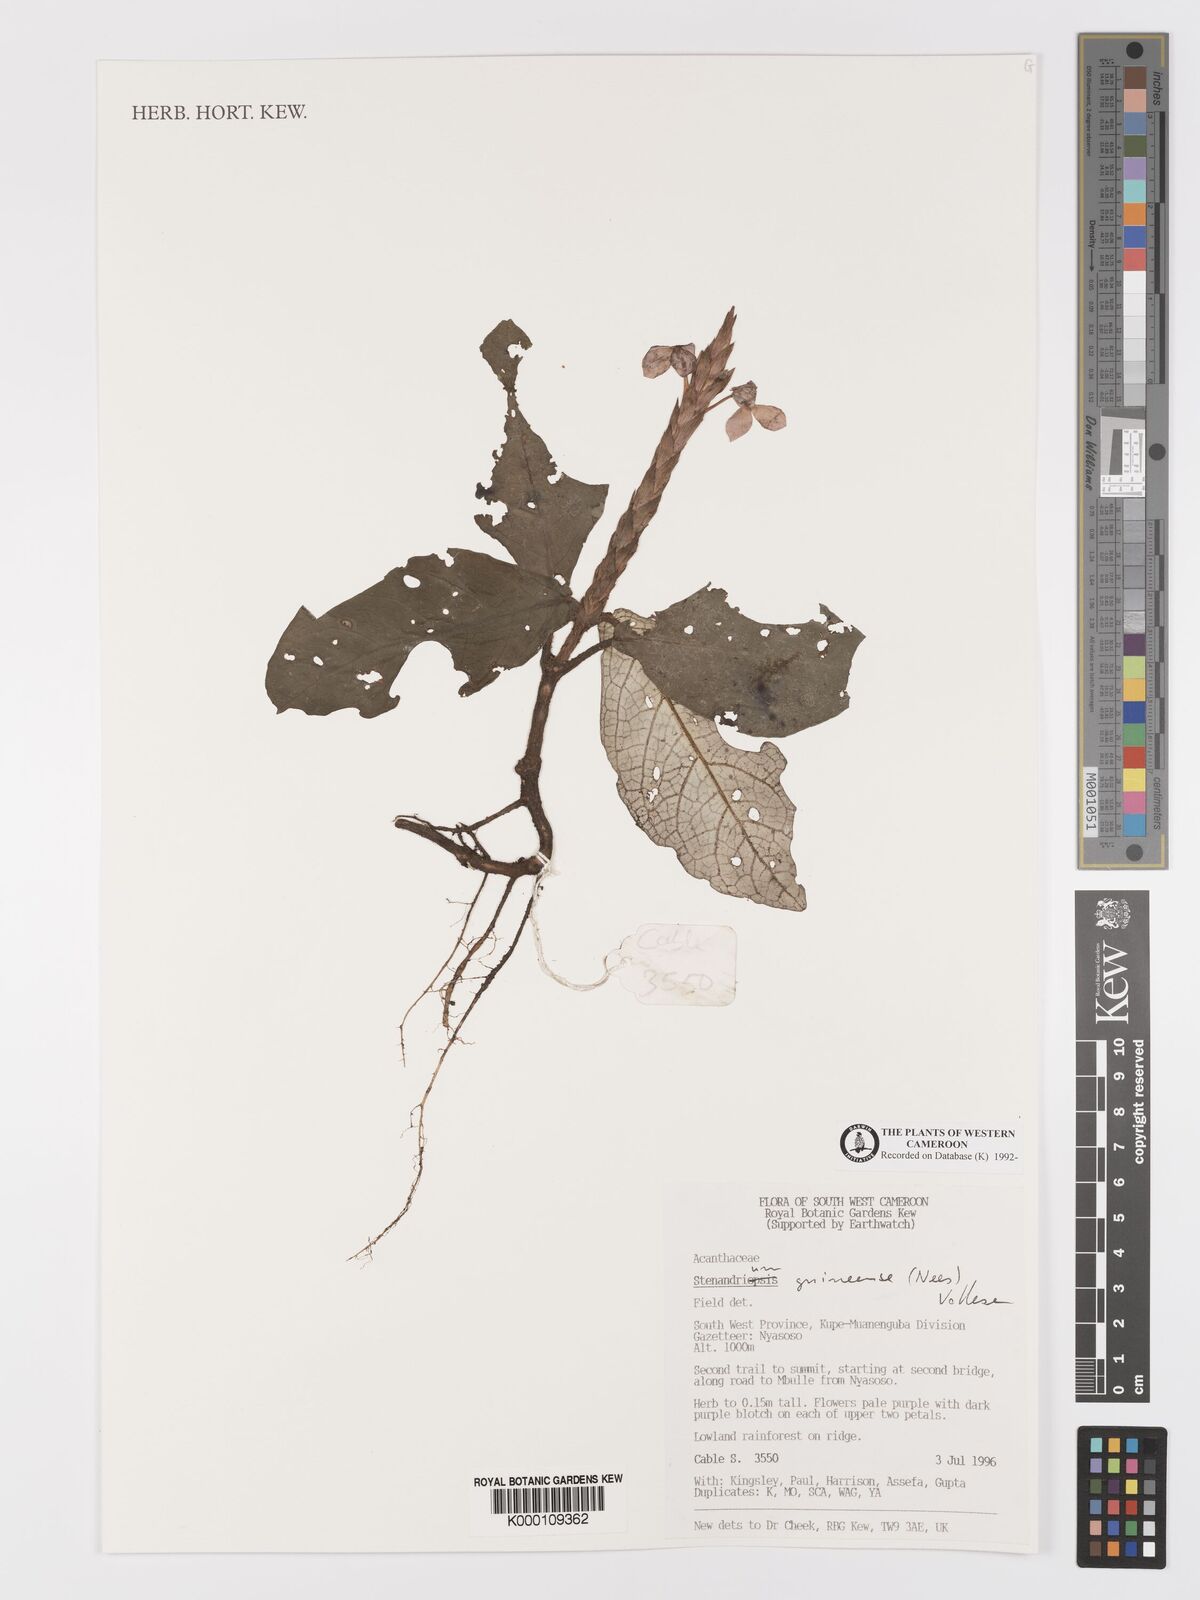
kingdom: Plantae
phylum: Tracheophyta
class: Magnoliopsida
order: Lamiales
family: Acanthaceae
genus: Stenandriopsis
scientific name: Stenandriopsis guineensis
